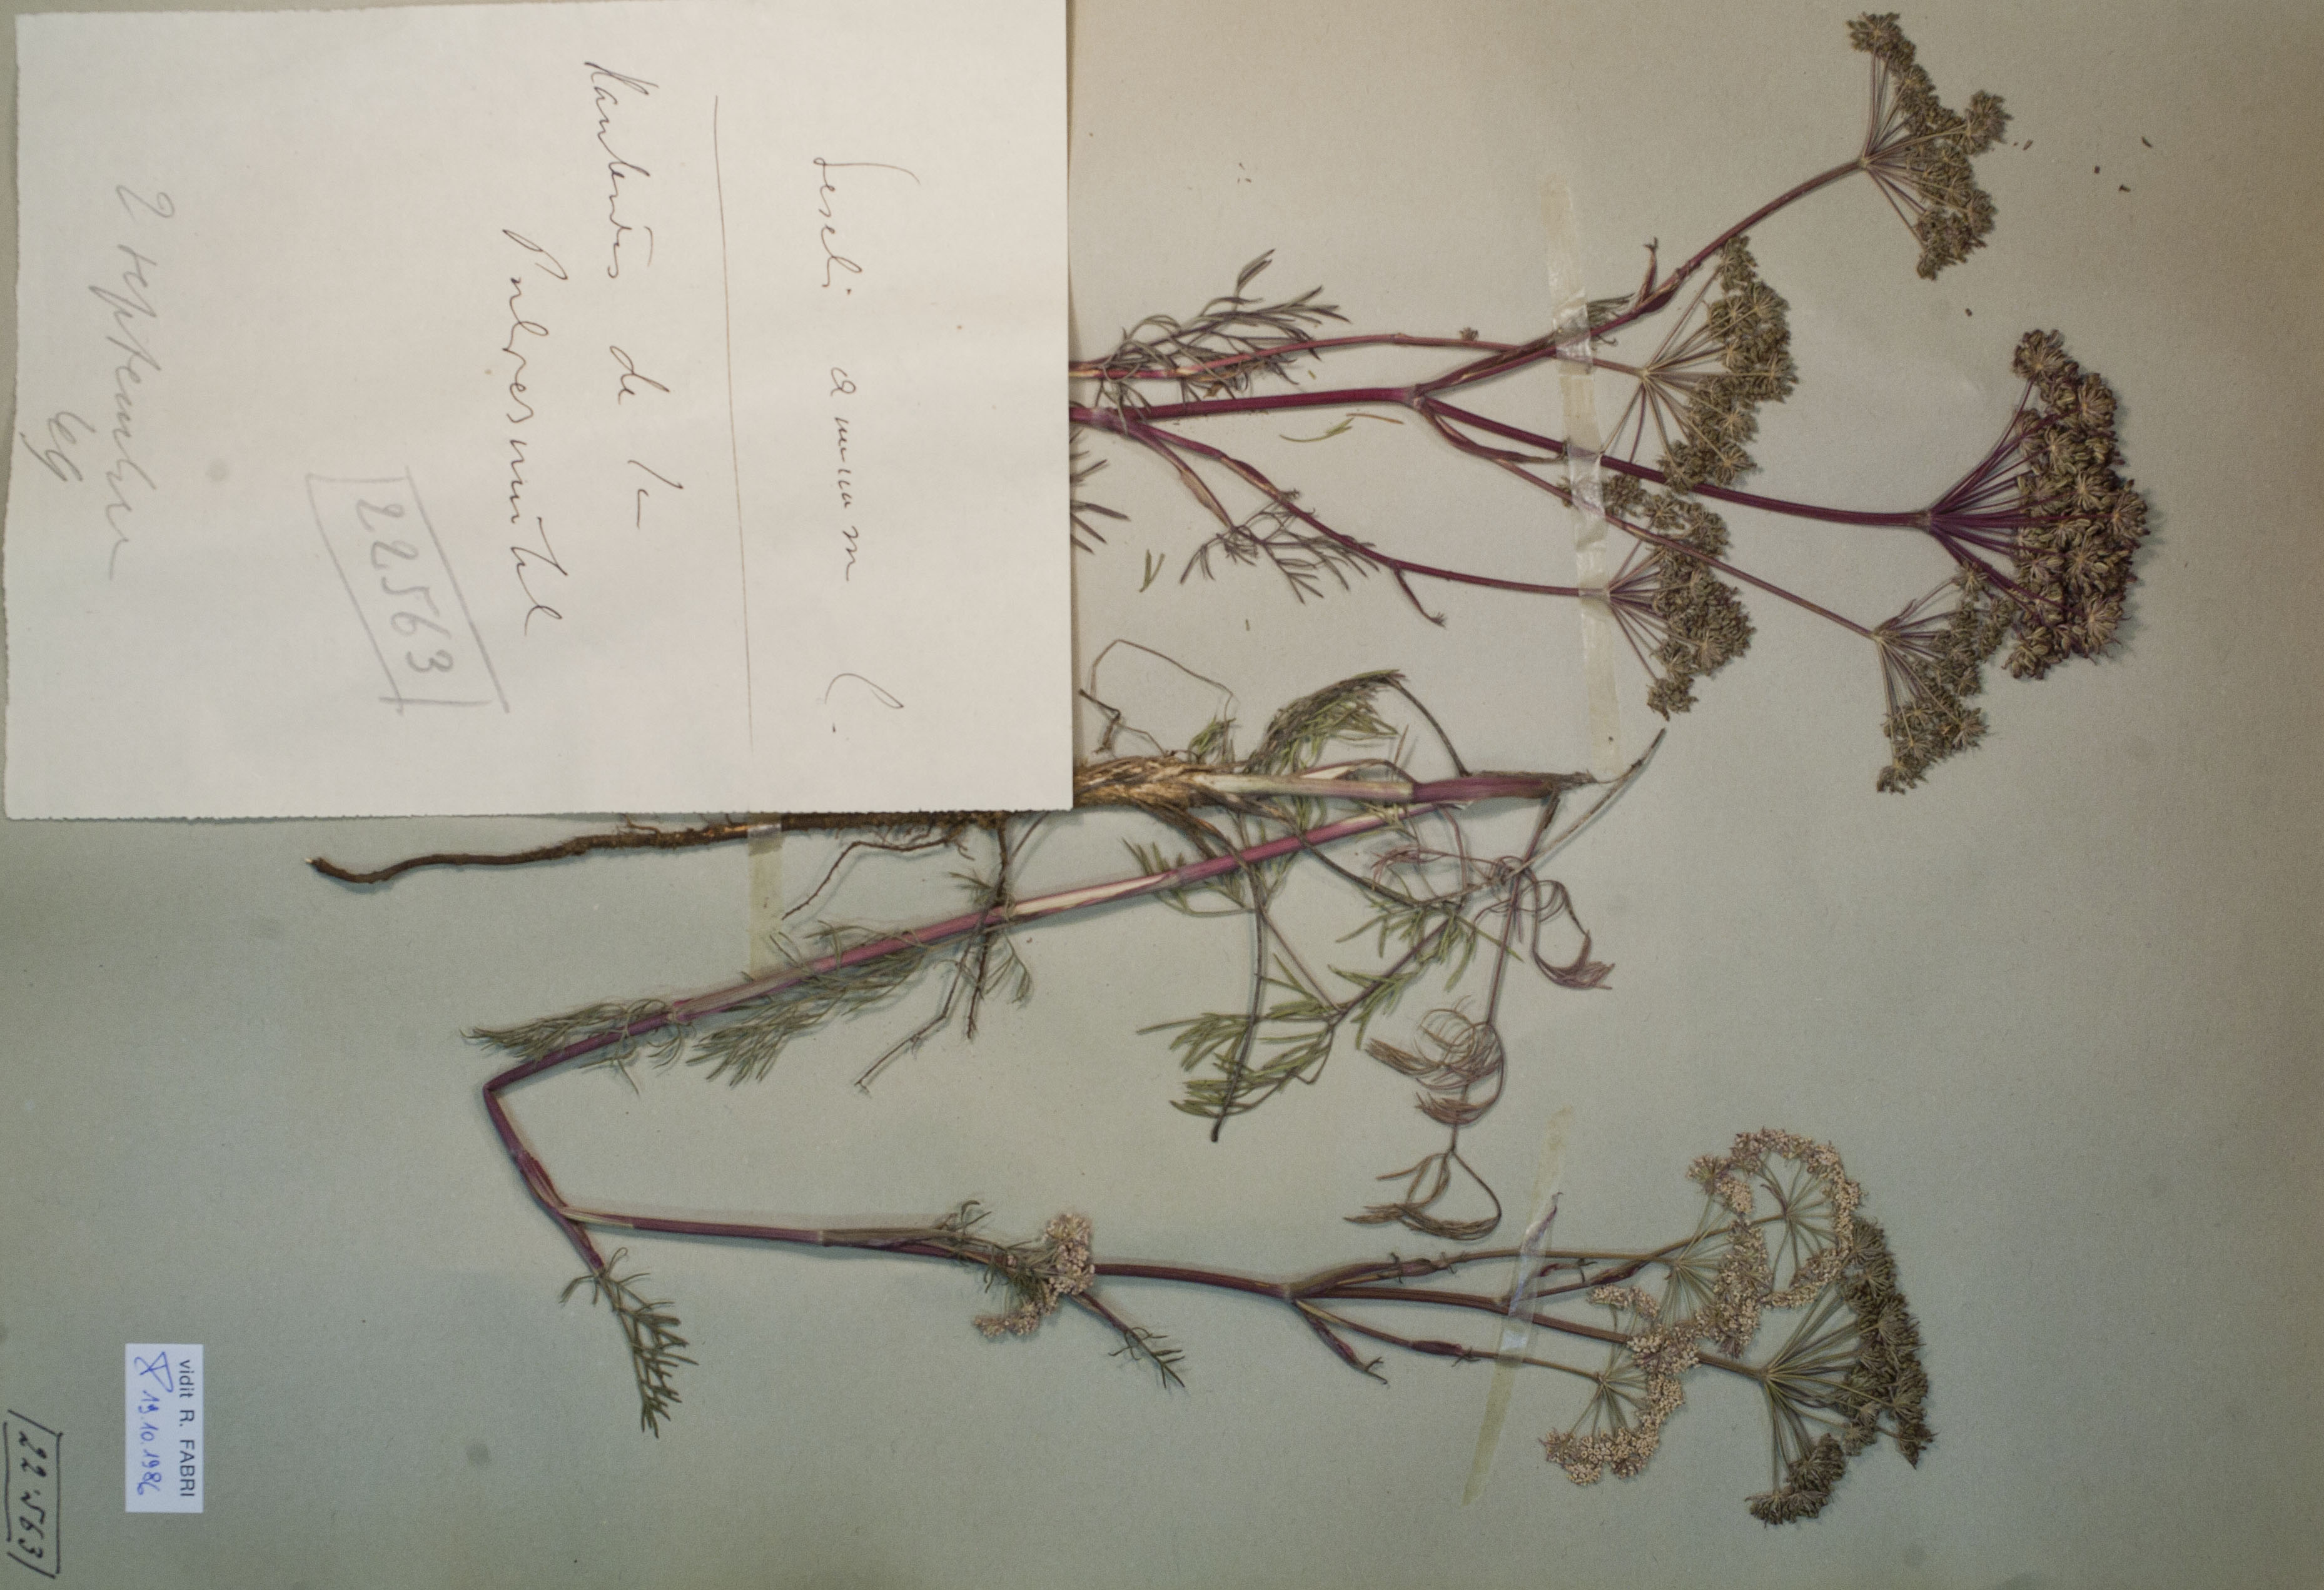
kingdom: Plantae
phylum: Tracheophyta
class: Magnoliopsida
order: Apiales
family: Apiaceae
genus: Seseli
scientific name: Seseli annuum
